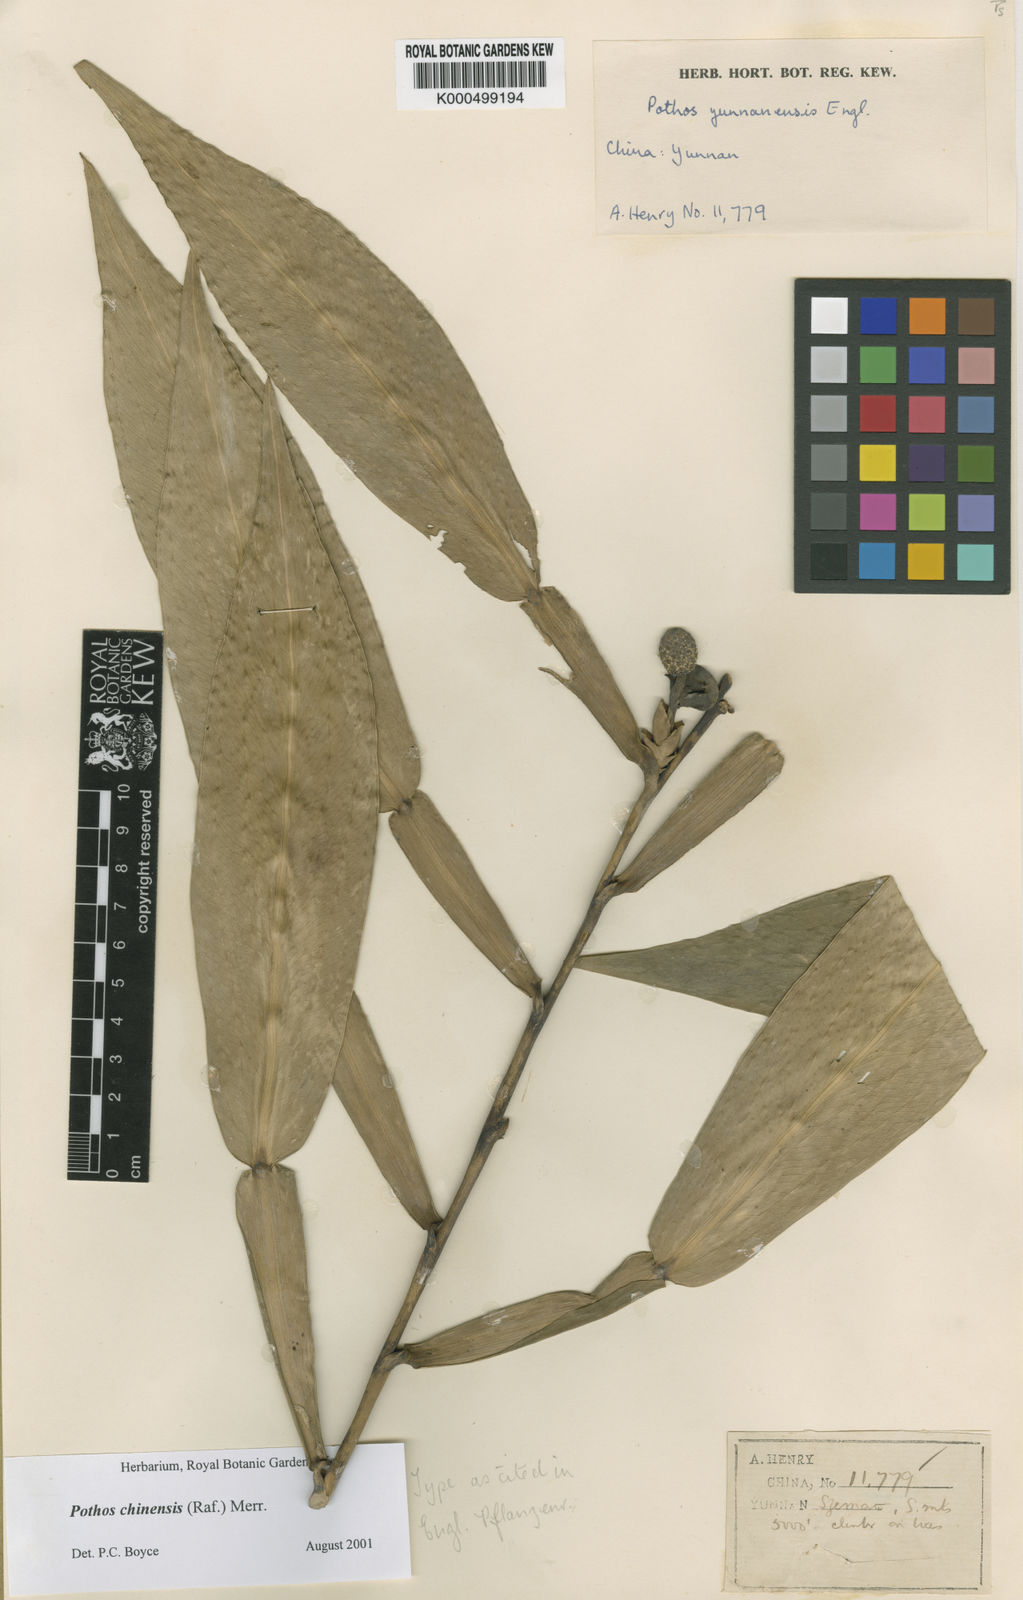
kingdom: Plantae
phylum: Tracheophyta
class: Liliopsida
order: Alismatales
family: Araceae
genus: Pothos
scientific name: Pothos chinensis
